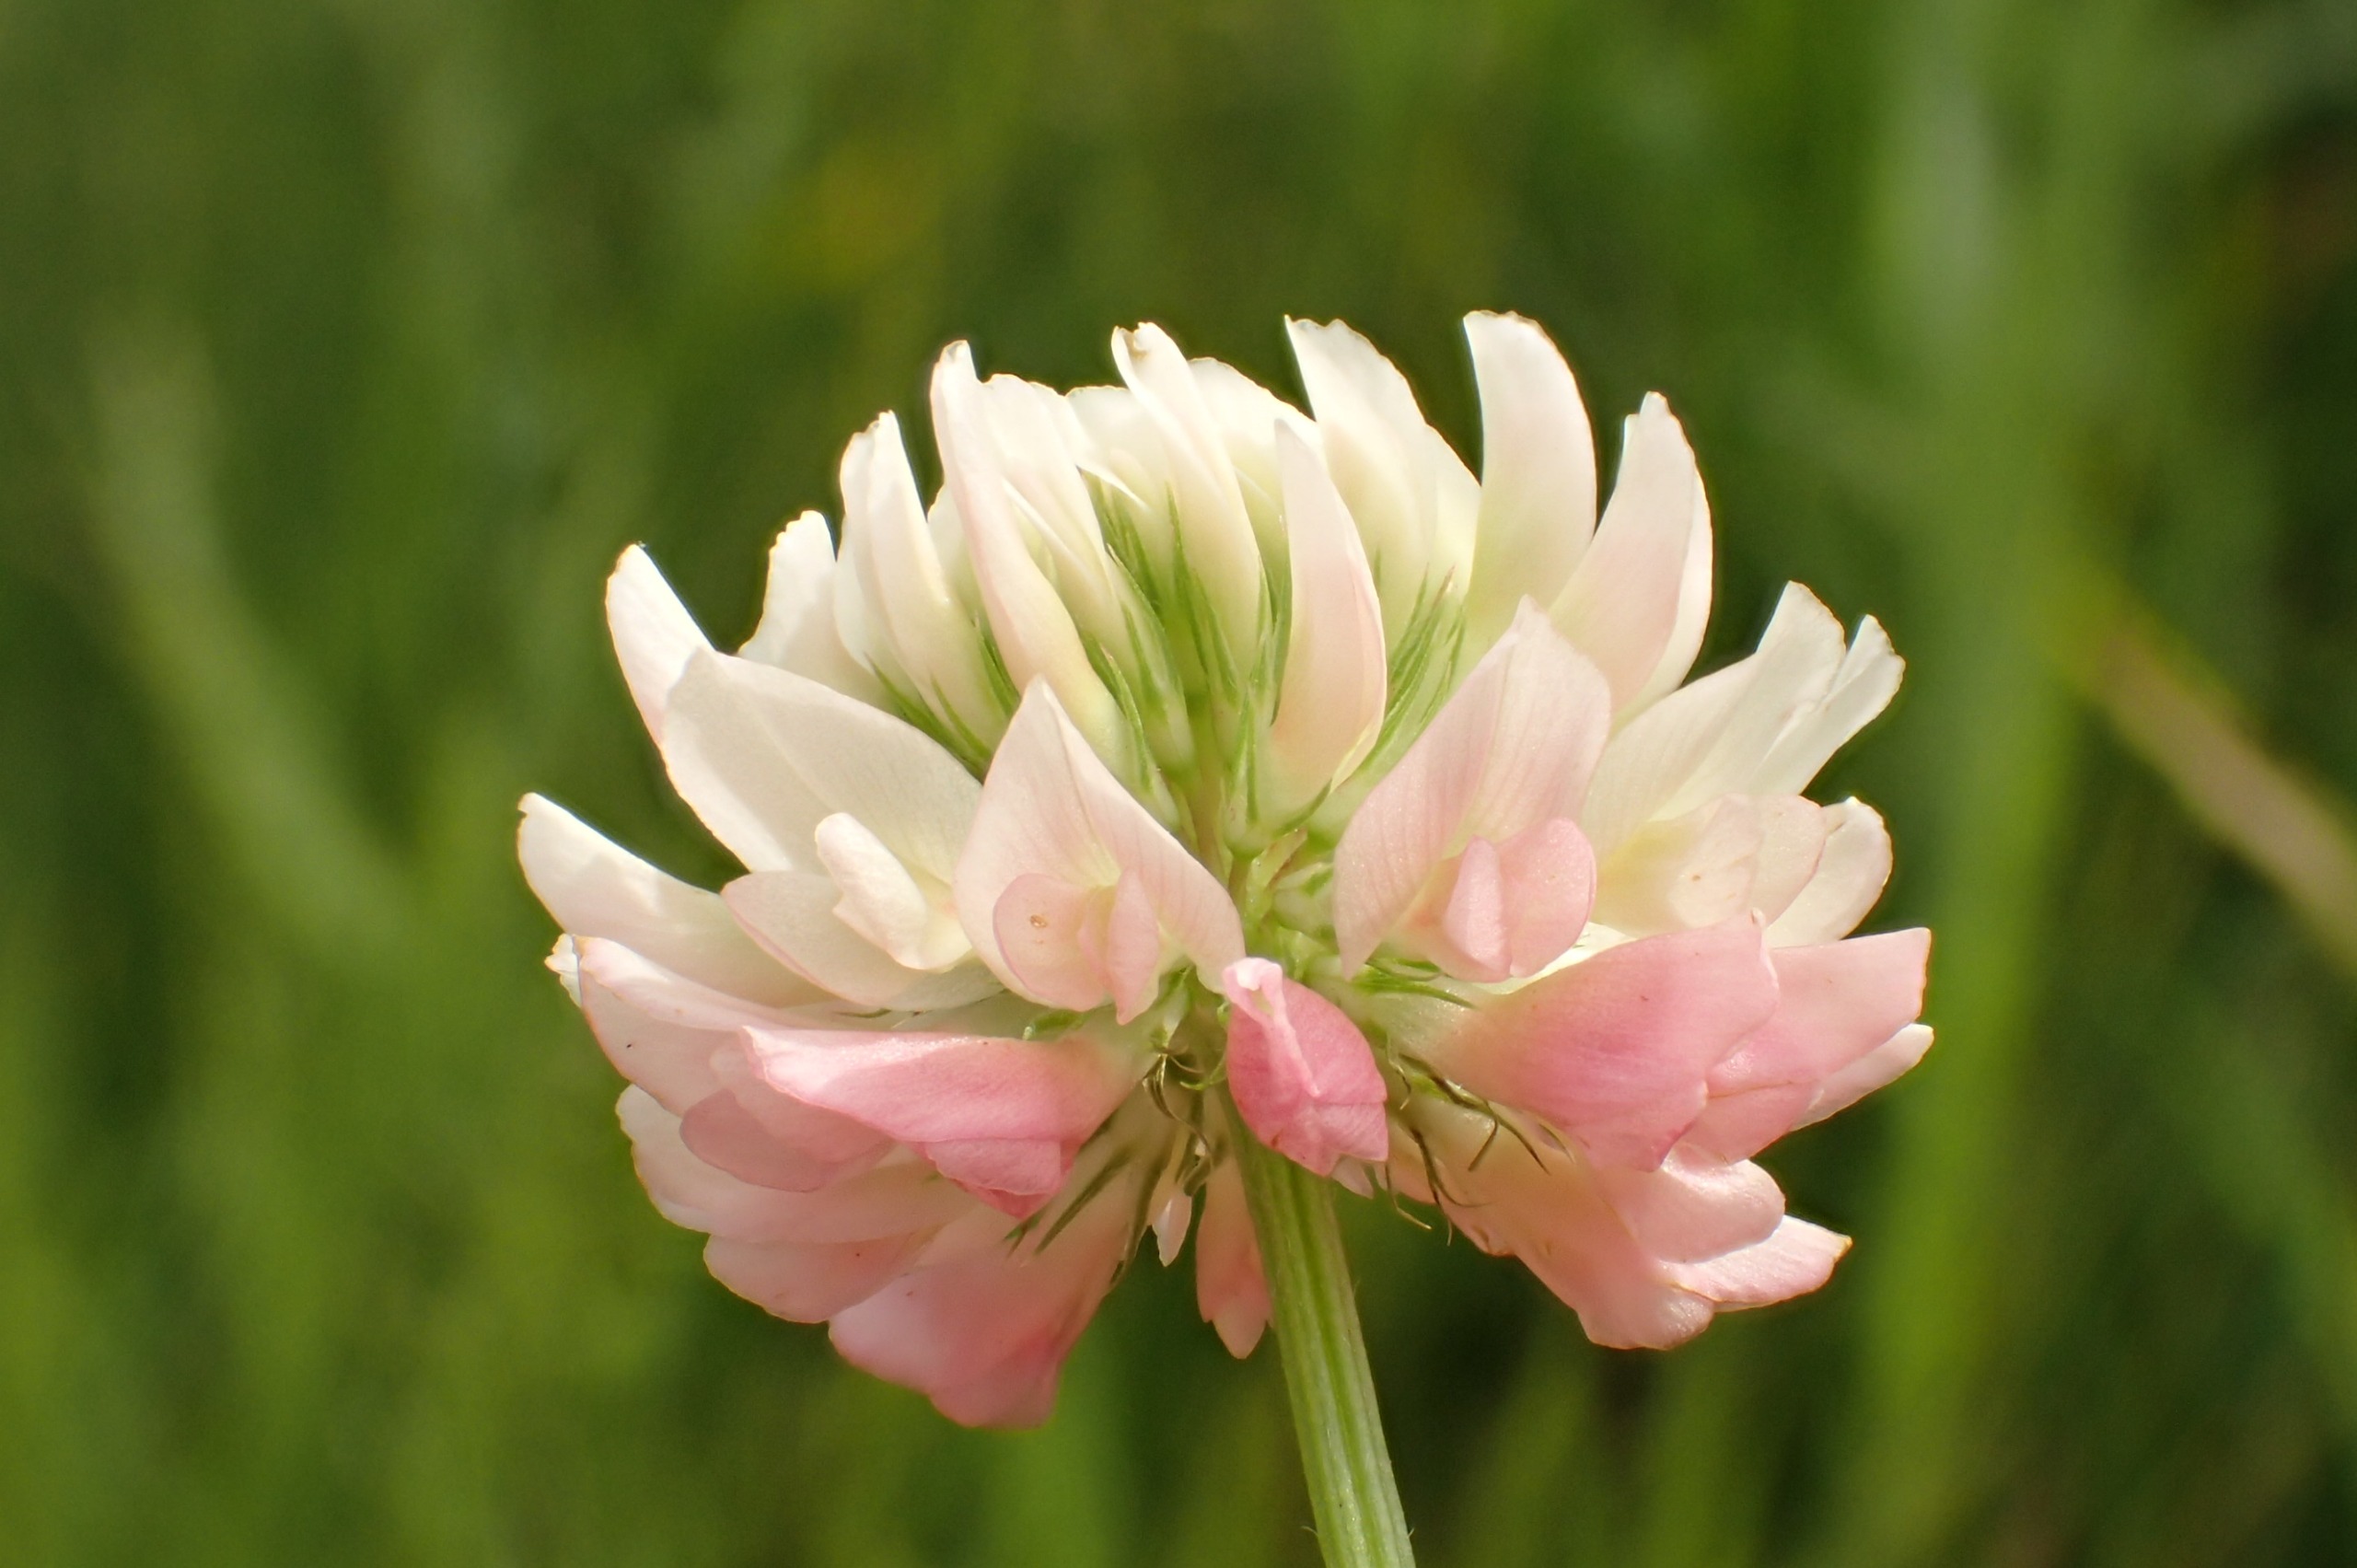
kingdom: Plantae
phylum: Tracheophyta
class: Magnoliopsida
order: Fabales
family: Fabaceae
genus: Trifolium
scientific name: Trifolium hybridum
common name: Alsike-kløver
